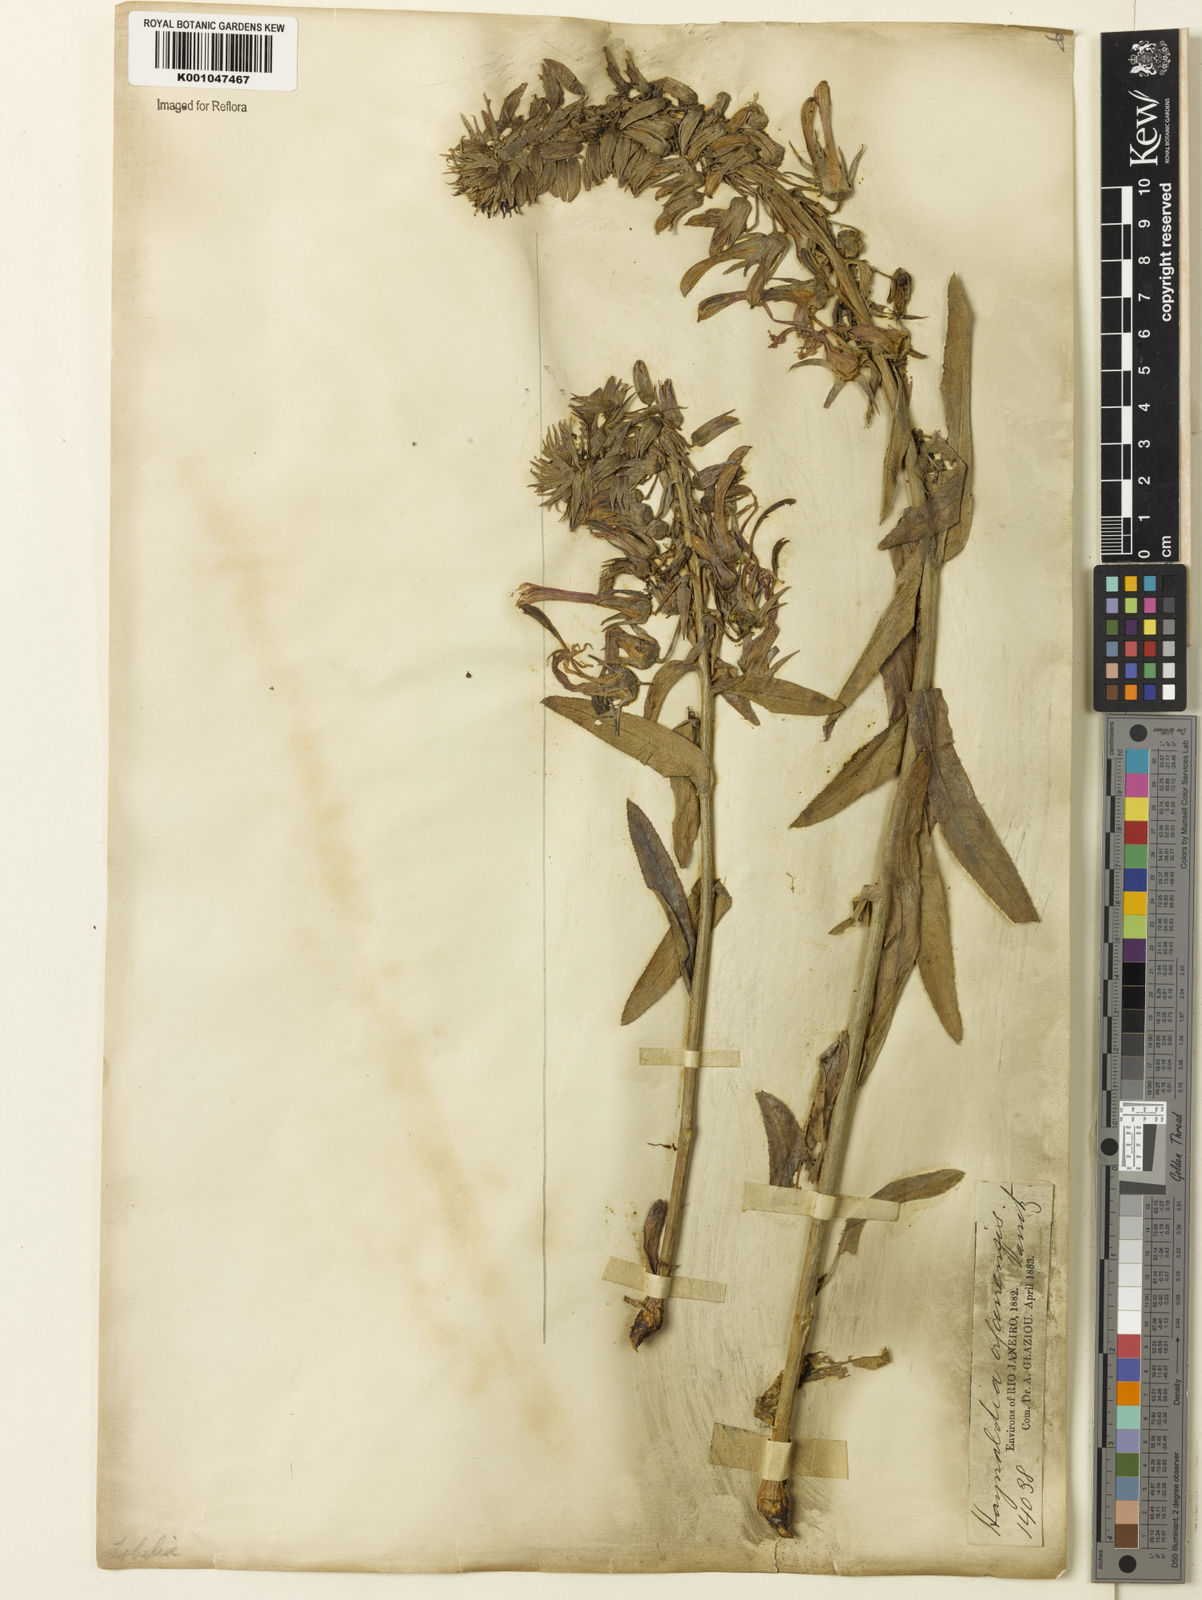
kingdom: Plantae
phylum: Tracheophyta
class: Magnoliopsida
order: Asterales
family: Campanulaceae
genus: Lobelia
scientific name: Lobelia organensis
